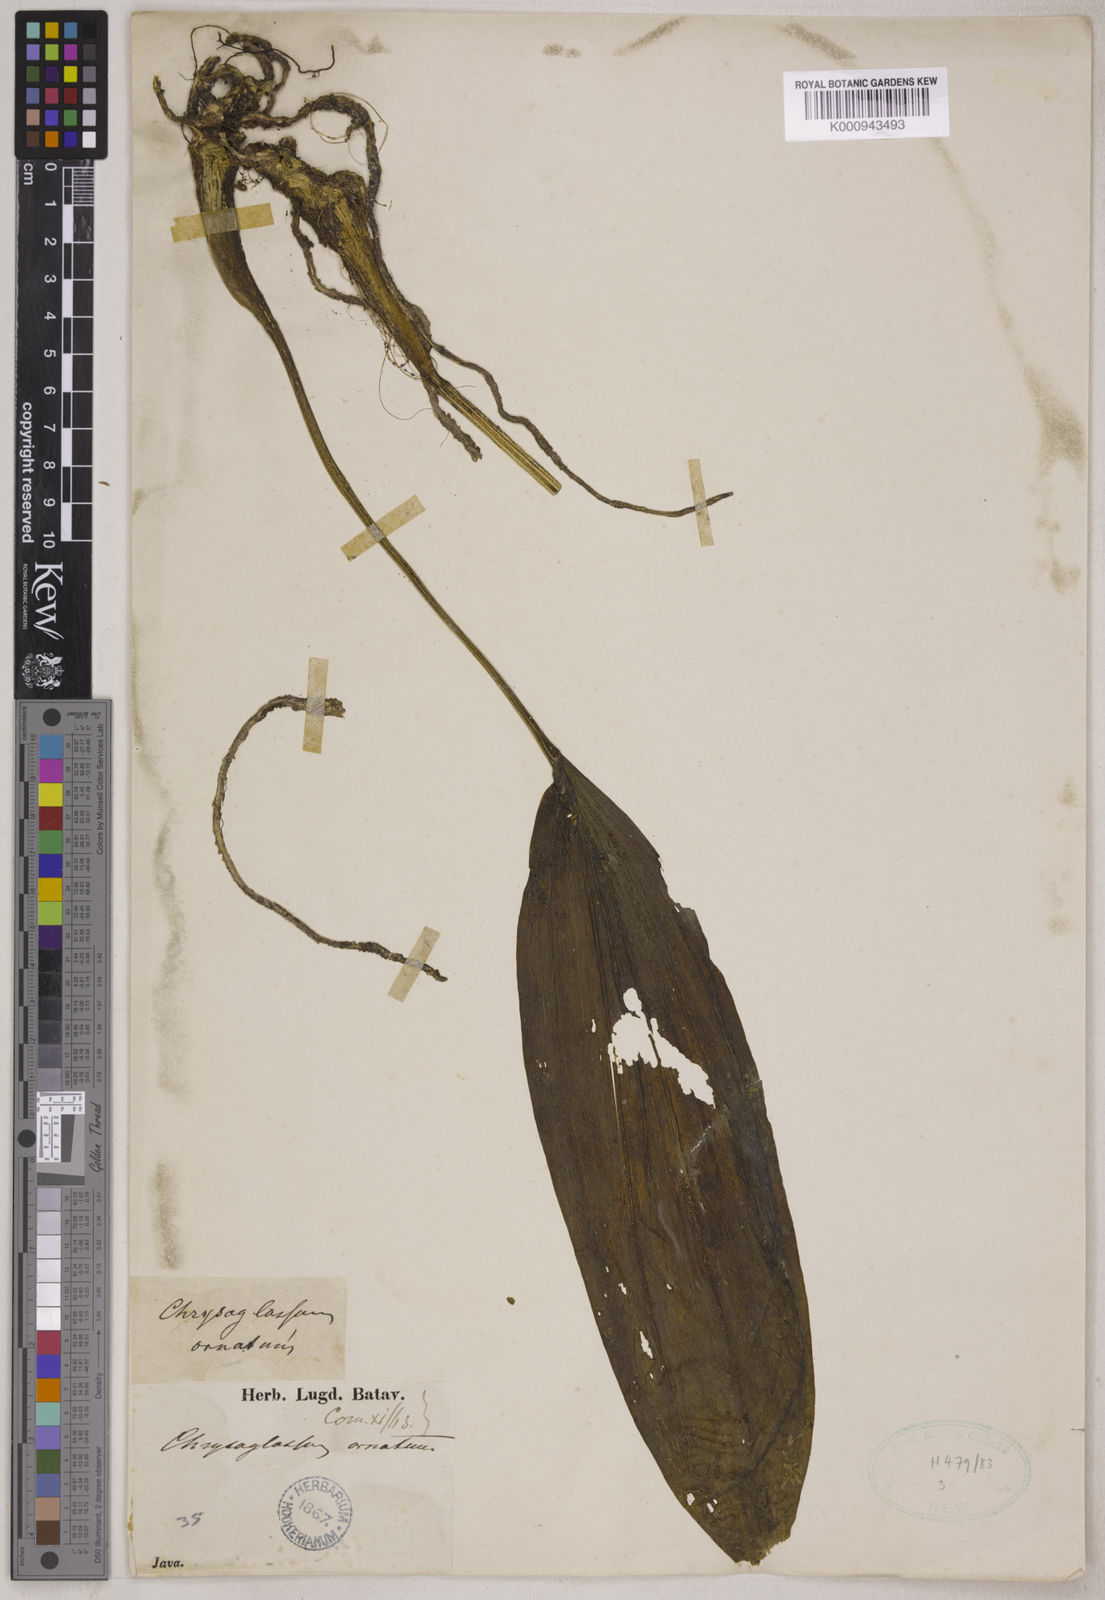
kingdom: Plantae
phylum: Tracheophyta
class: Liliopsida
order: Asparagales
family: Orchidaceae
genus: Chrysoglossum
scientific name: Chrysoglossum ornatum
